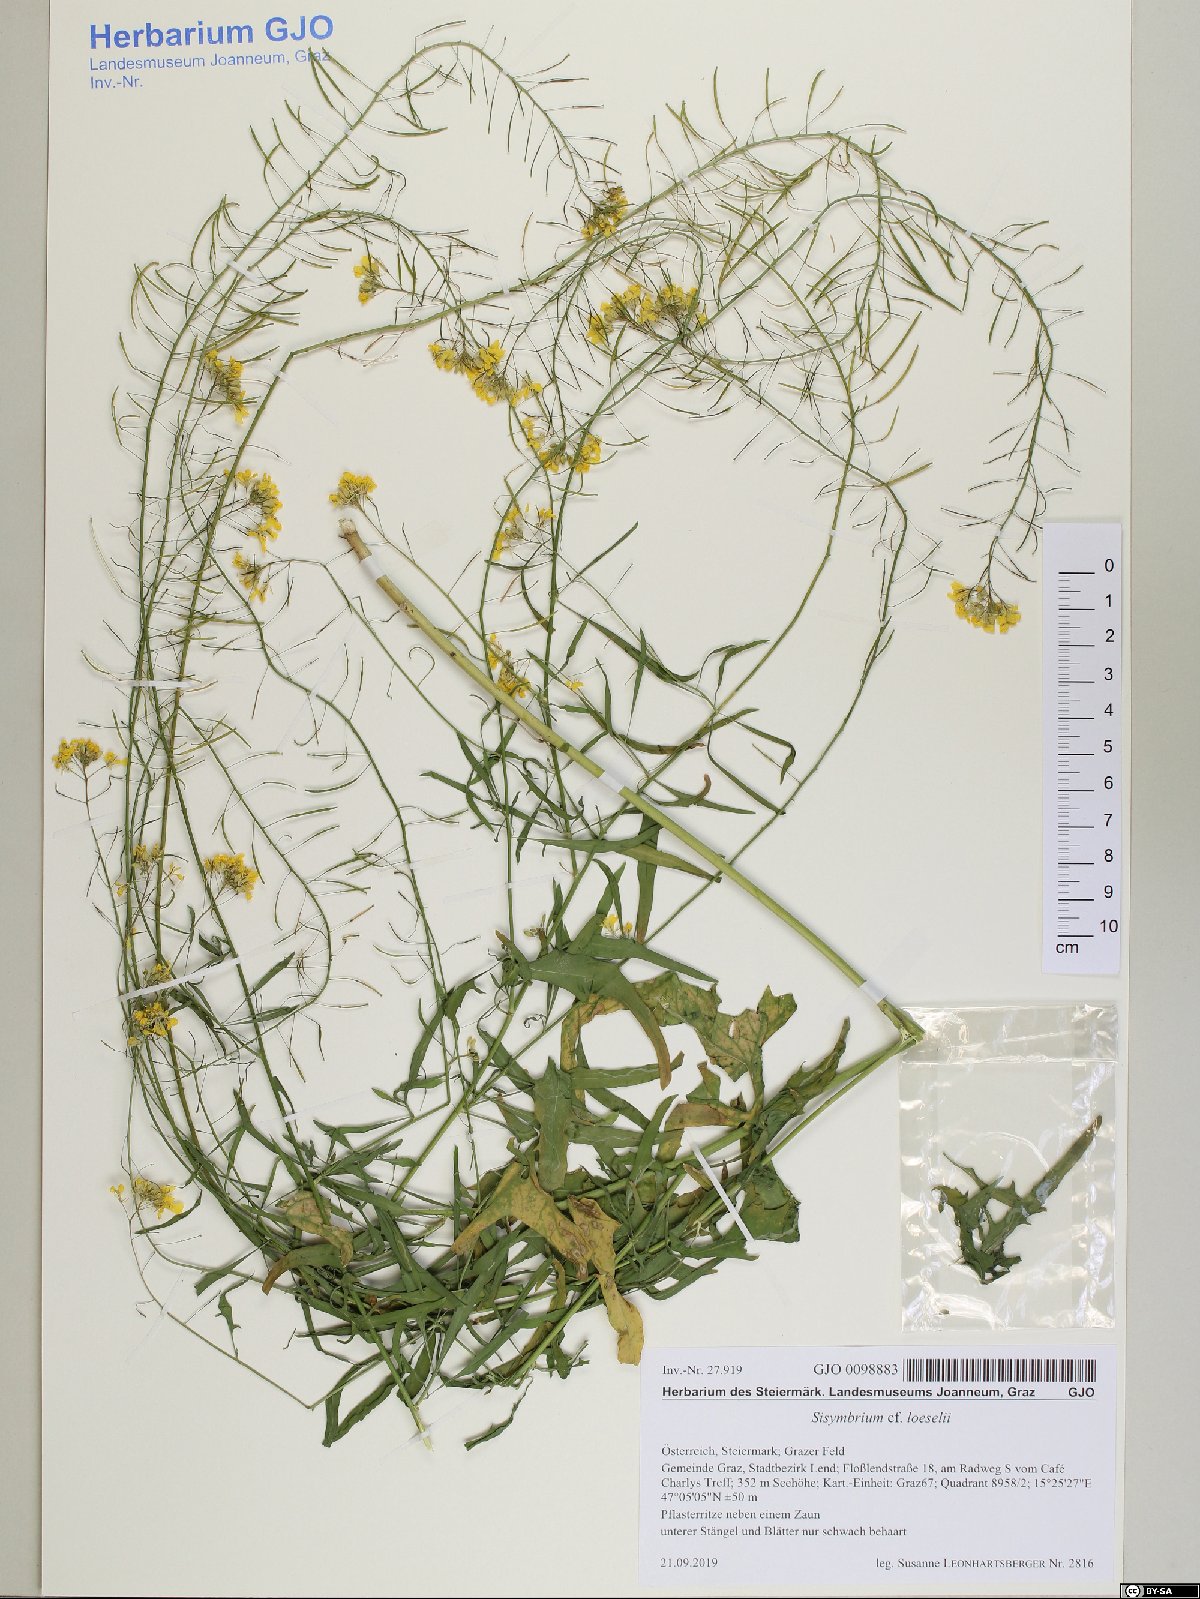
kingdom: Plantae
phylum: Tracheophyta
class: Magnoliopsida
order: Brassicales
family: Brassicaceae
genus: Sisymbrium
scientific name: Sisymbrium loeselii
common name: False london-rocket
